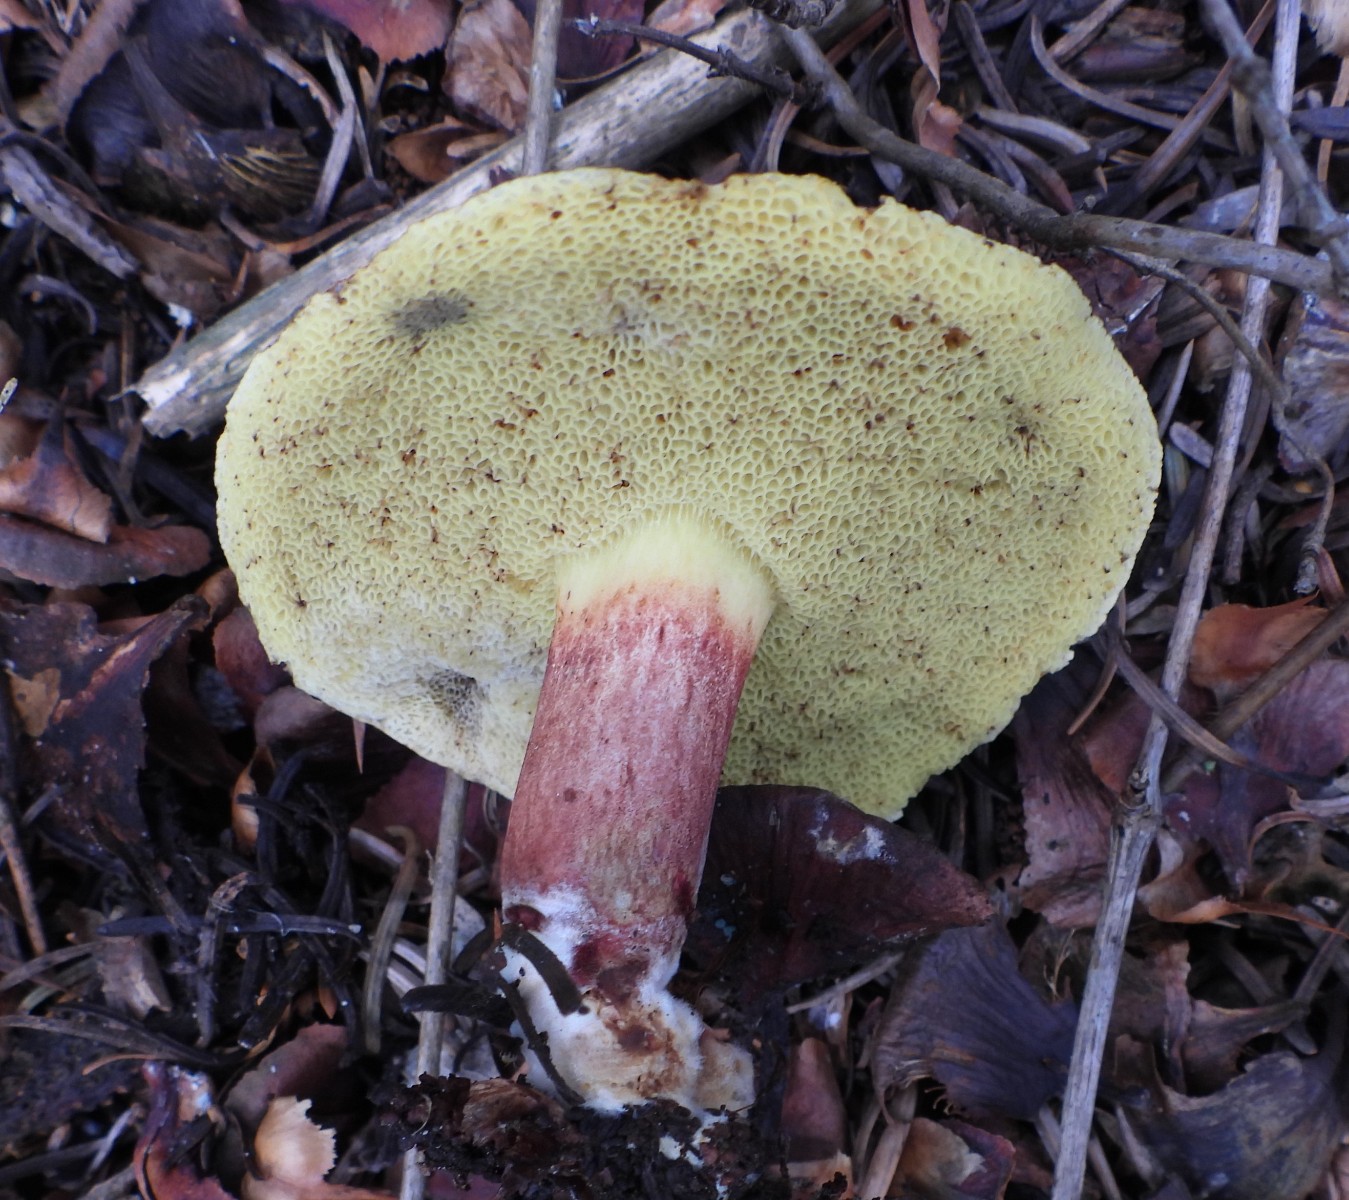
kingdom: Fungi
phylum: Basidiomycota
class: Agaricomycetes
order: Boletales
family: Boletaceae
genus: Xerocomellus
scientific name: Xerocomellus
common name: dværgrørhat
